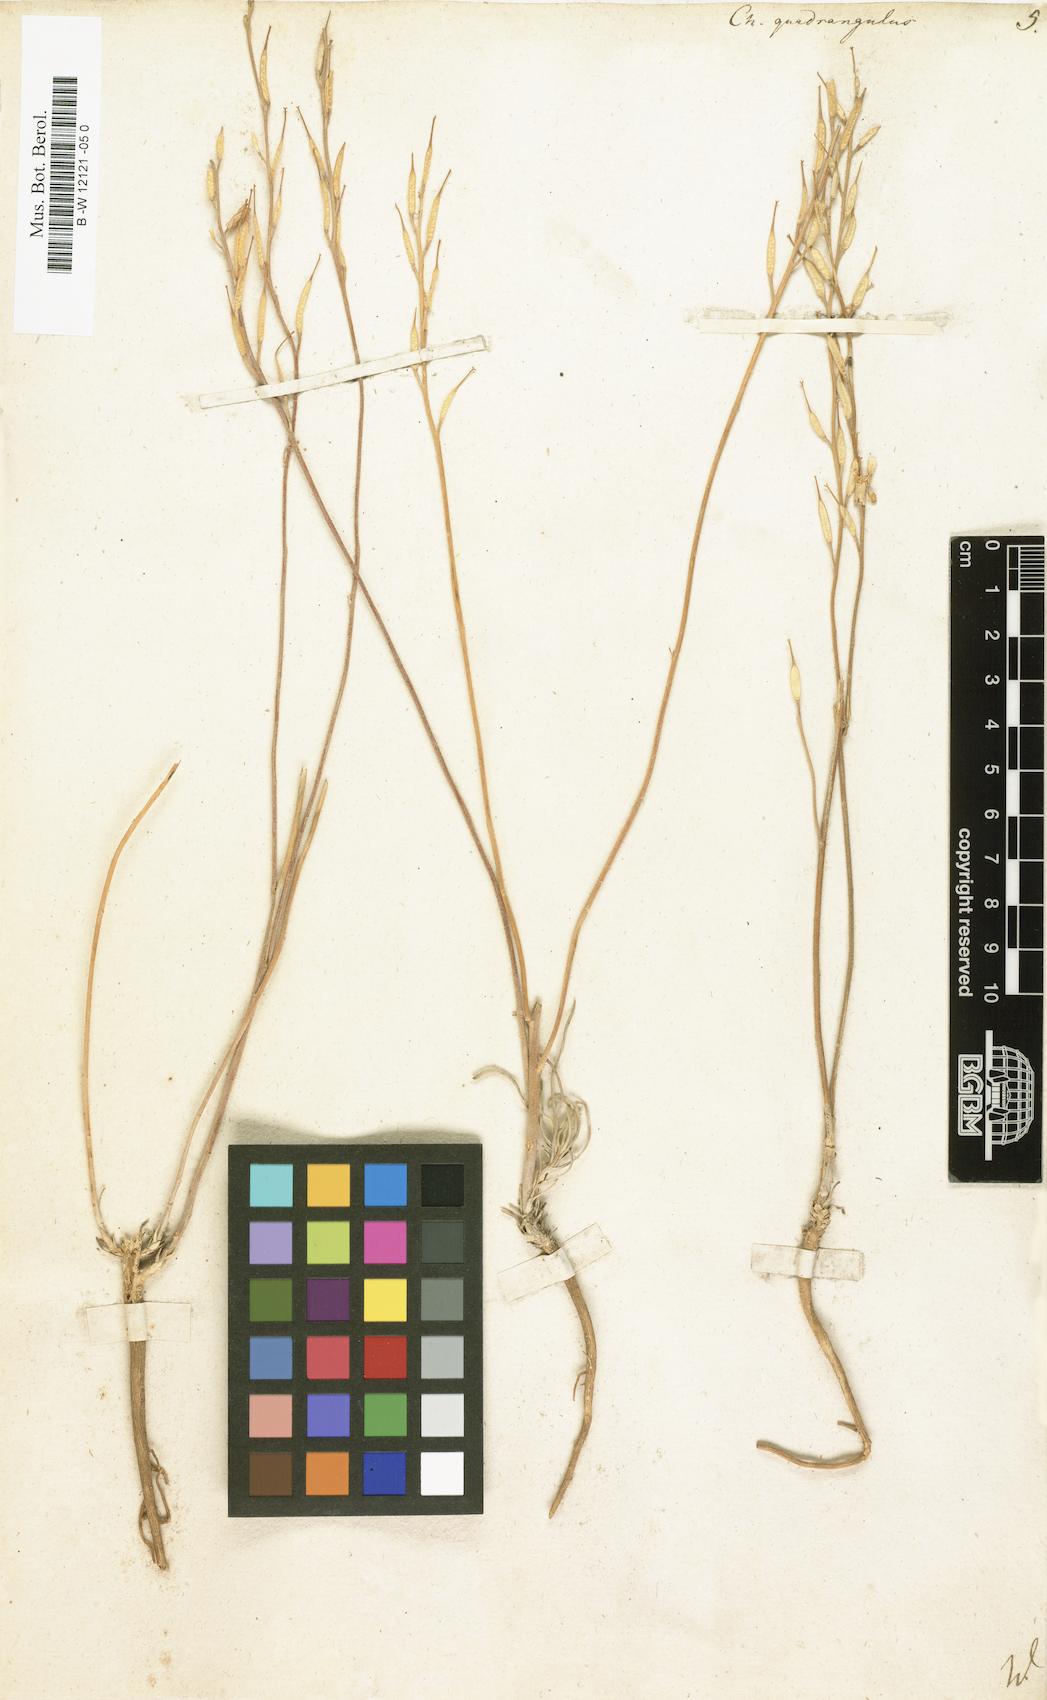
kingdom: Plantae
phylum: Tracheophyta
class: Magnoliopsida
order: Brassicales
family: Brassicaceae
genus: Erysimum
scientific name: Erysimum
